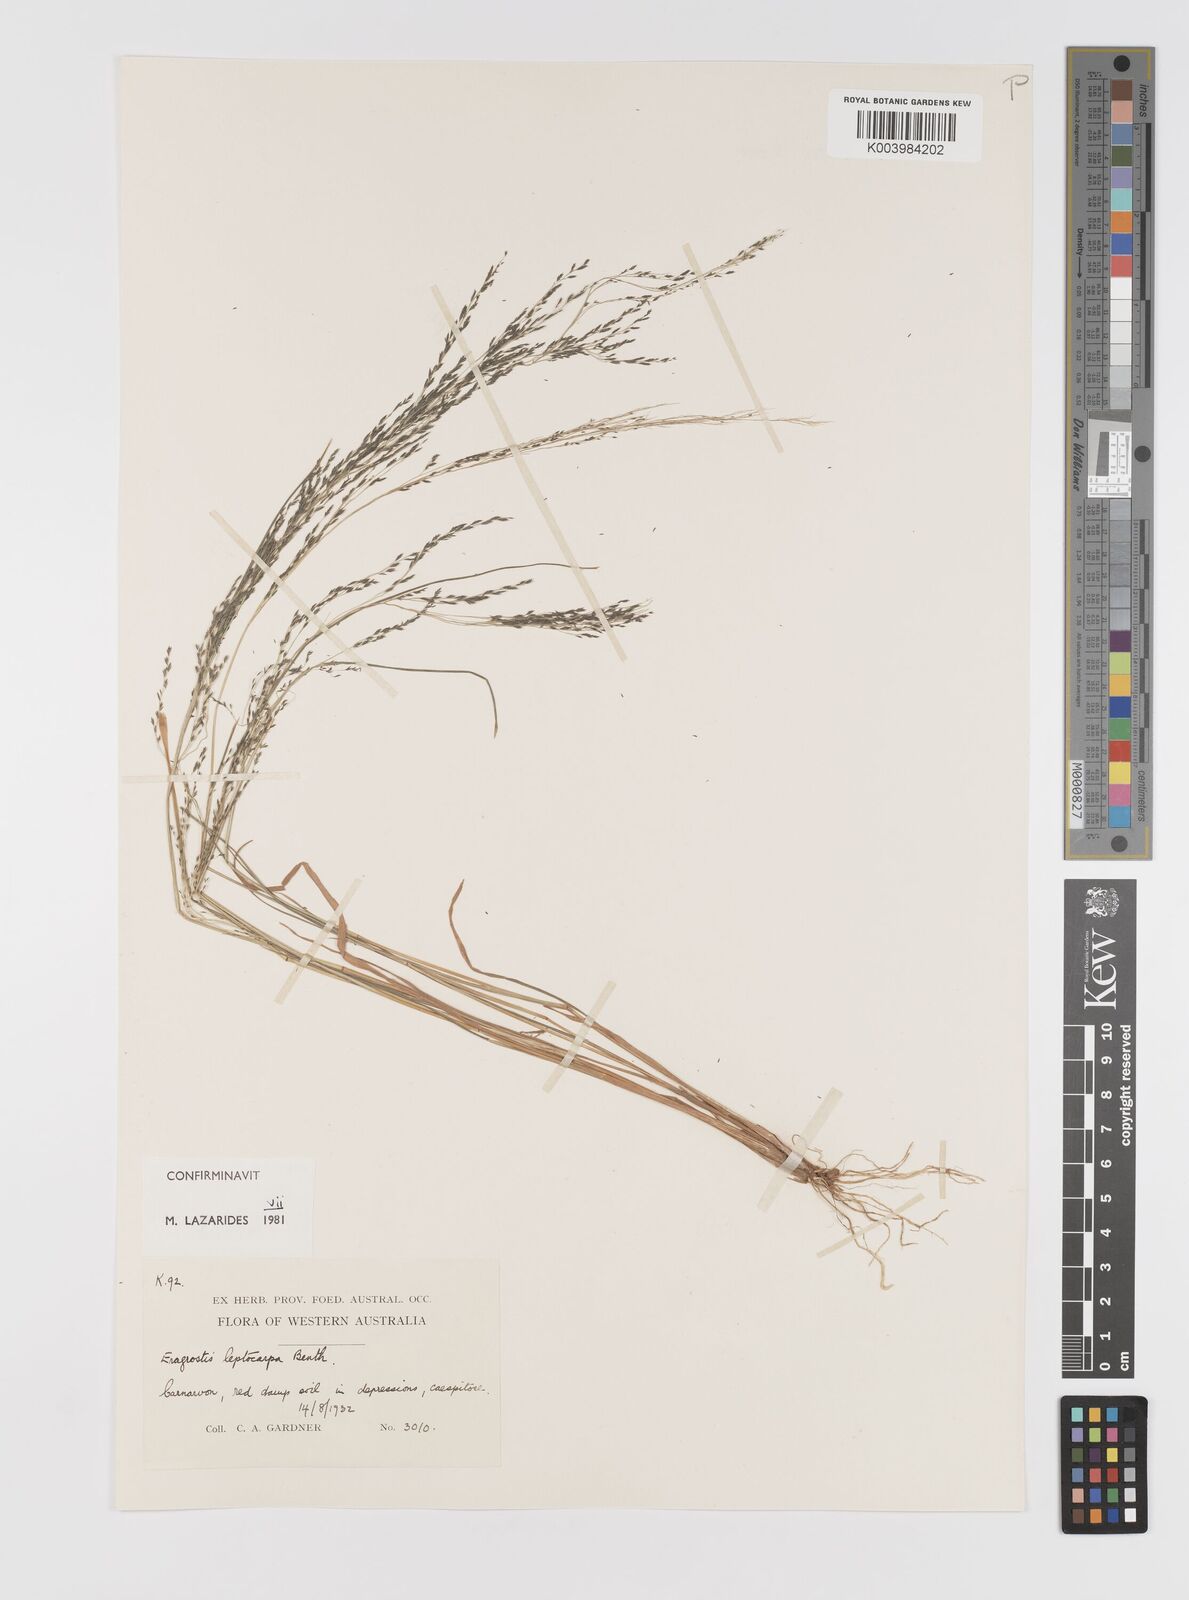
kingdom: Plantae
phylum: Tracheophyta
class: Liliopsida
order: Poales
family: Poaceae
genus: Eragrostis
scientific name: Eragrostis leptocarpa
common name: Drooping love grass
